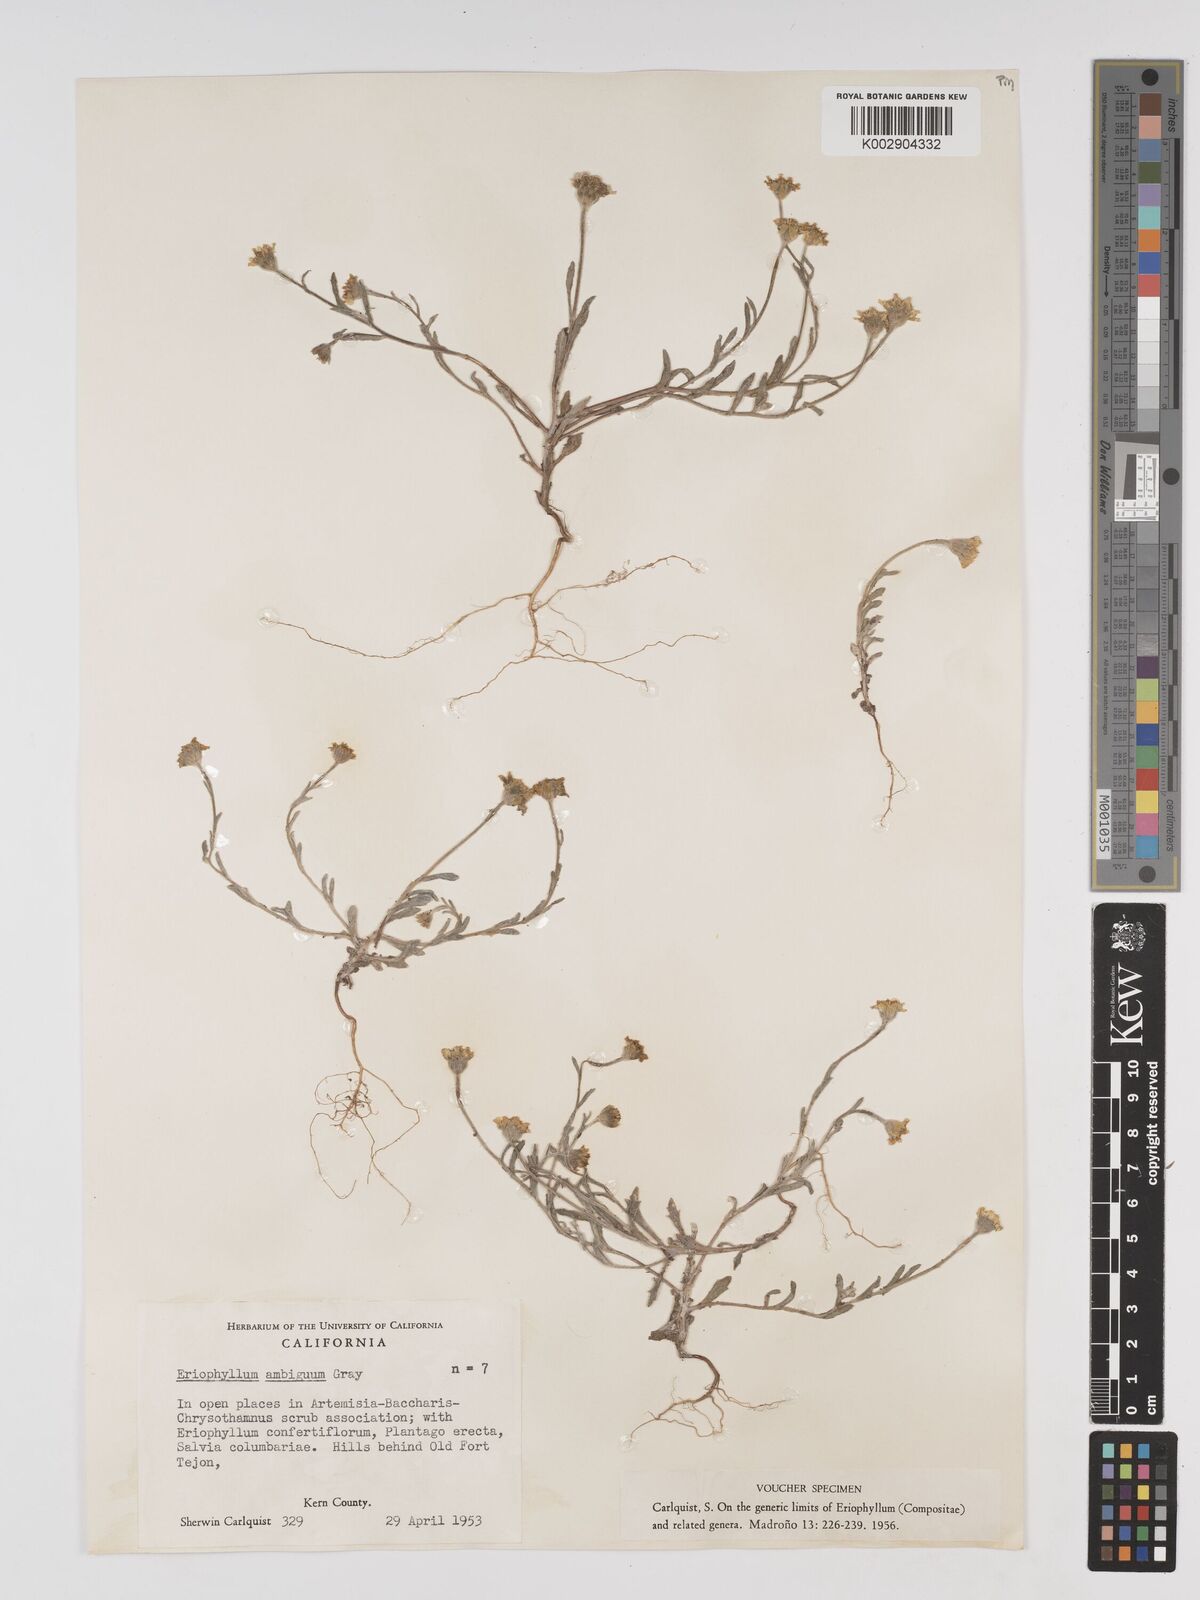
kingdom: Plantae
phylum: Tracheophyta
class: Magnoliopsida
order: Asterales
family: Asteraceae
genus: Eriophyllum
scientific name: Eriophyllum ambiguum
